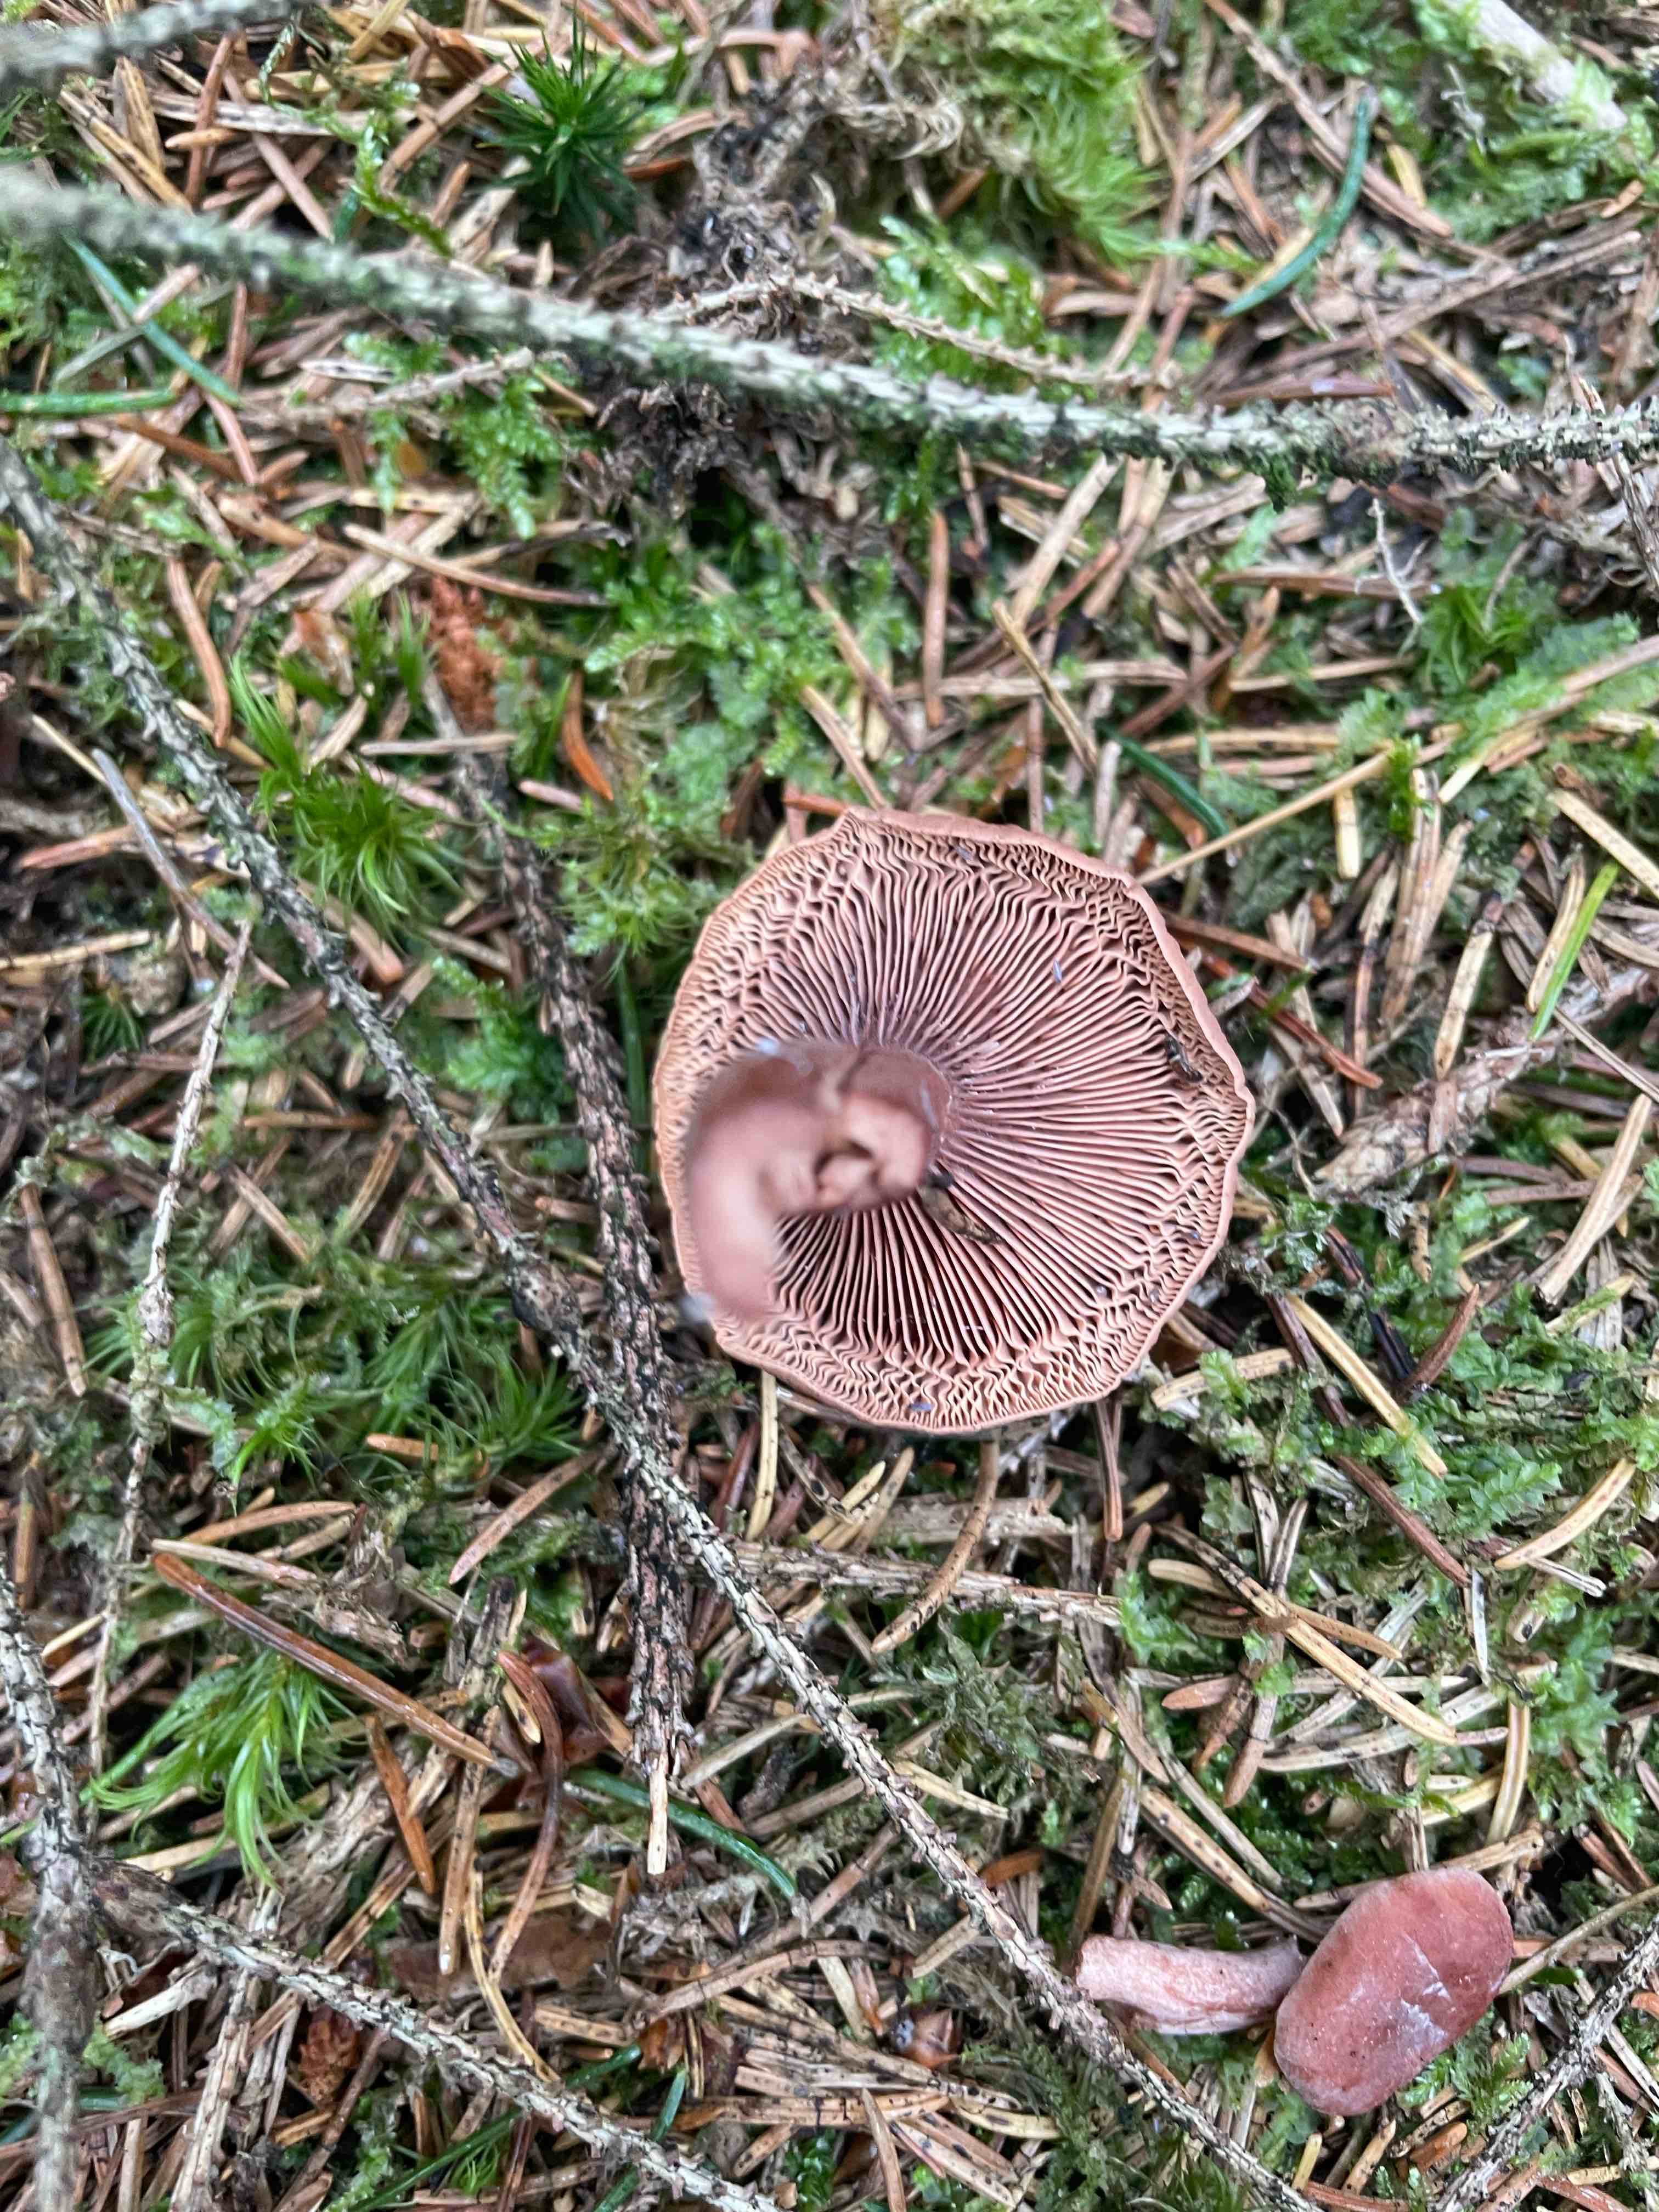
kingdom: Fungi
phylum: Basidiomycota
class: Agaricomycetes
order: Russulales
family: Russulaceae
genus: Lactarius
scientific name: Lactarius camphoratus
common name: kamfer-mælkehat
